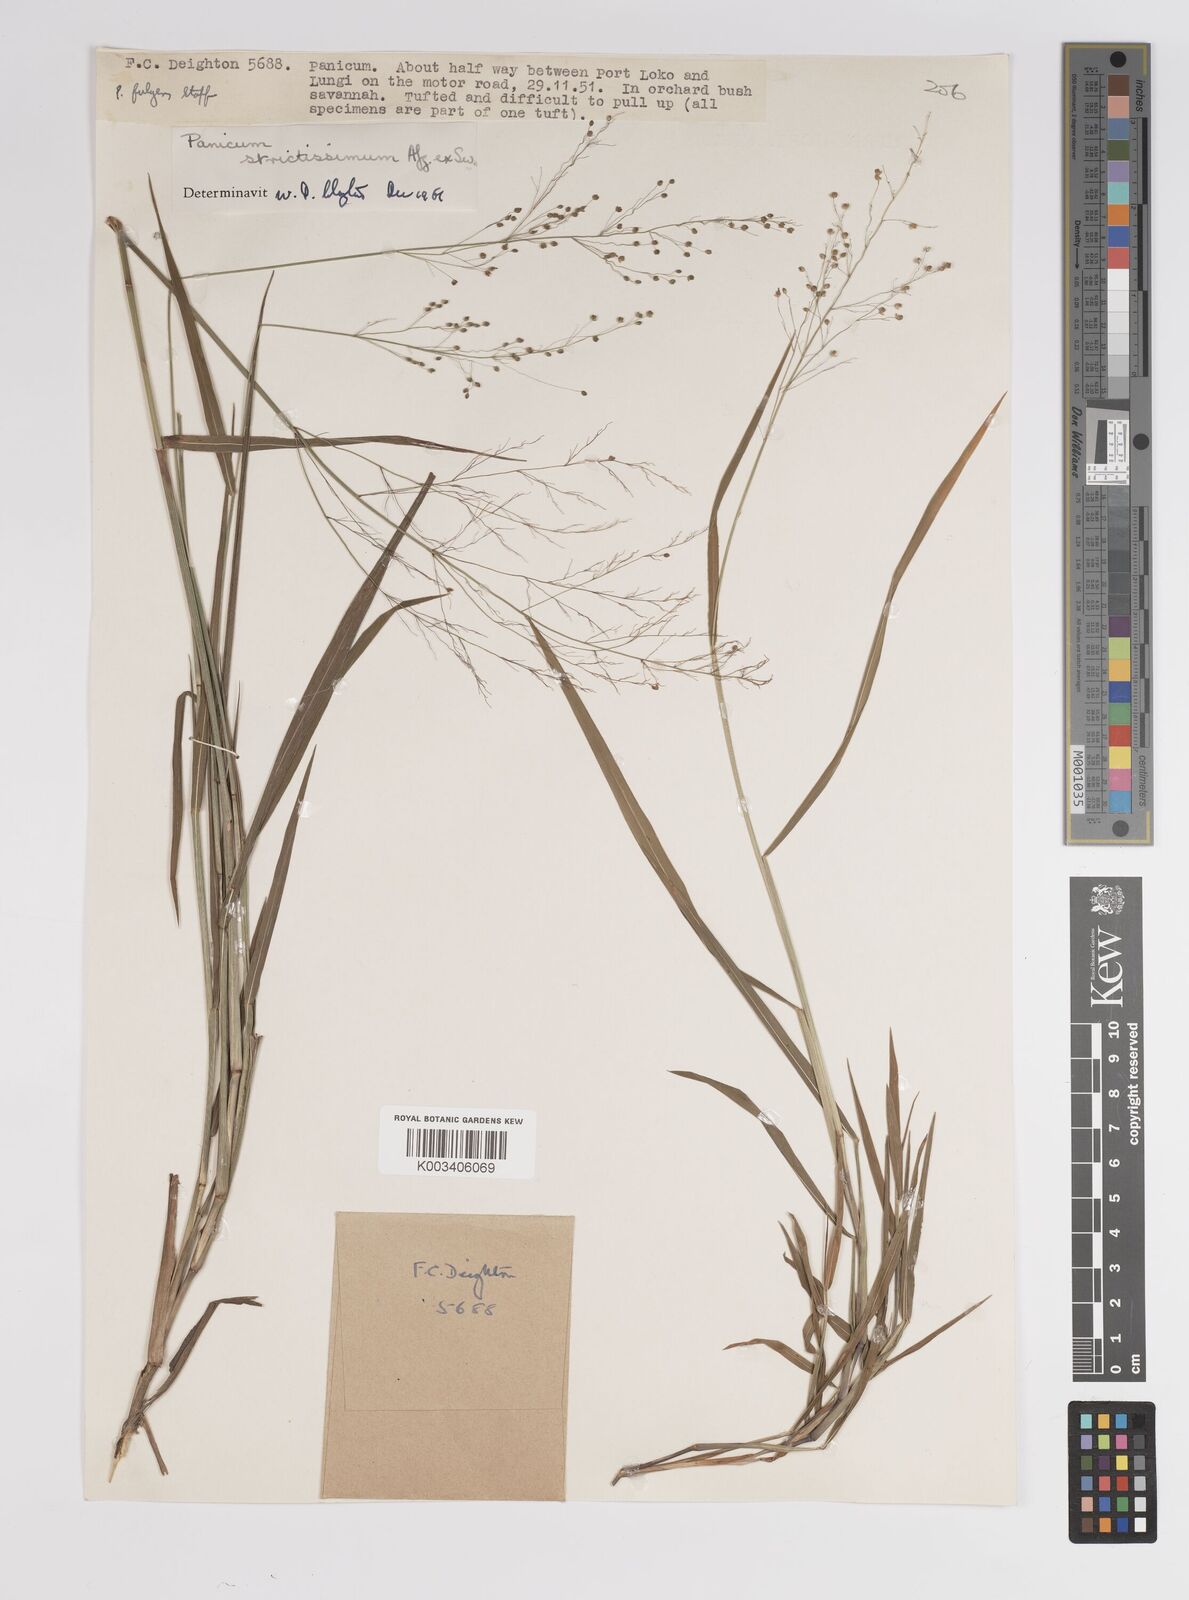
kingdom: Plantae
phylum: Tracheophyta
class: Liliopsida
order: Poales
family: Poaceae
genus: Panicum
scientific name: Panicum eickii
